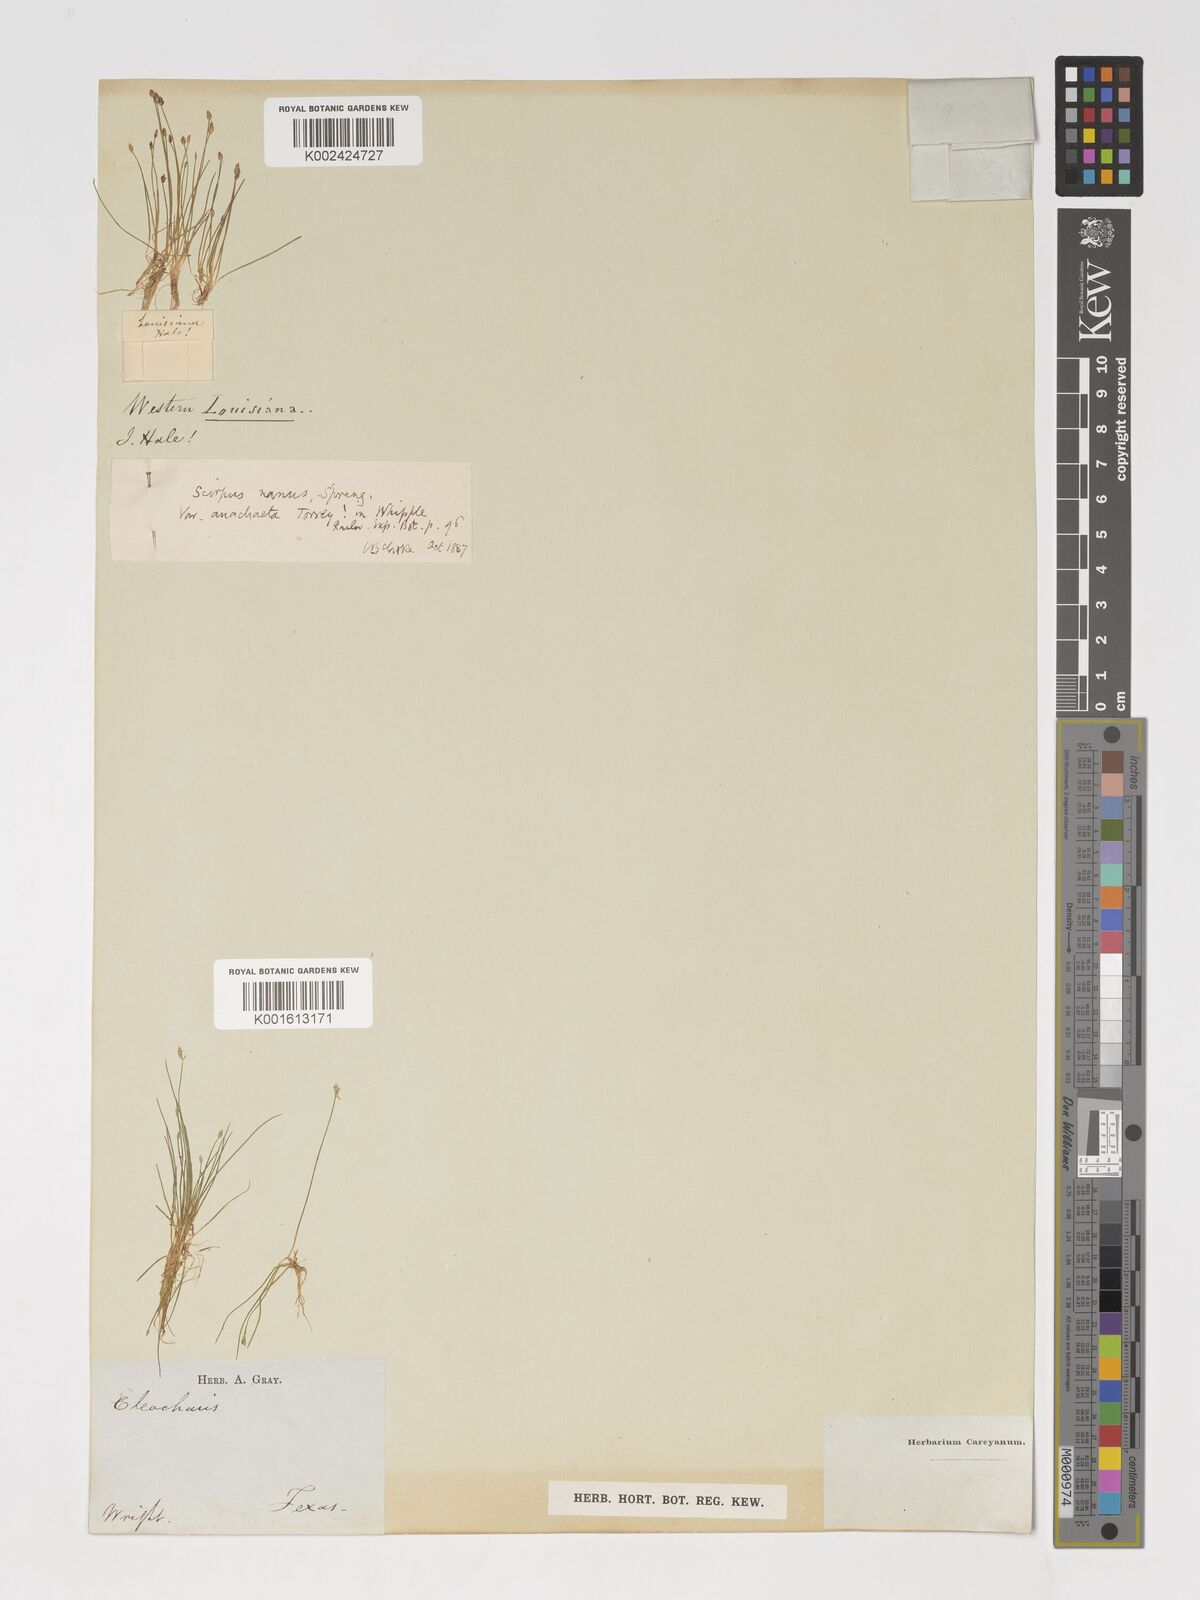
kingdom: Plantae
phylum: Tracheophyta
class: Liliopsida
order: Poales
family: Cyperaceae
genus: Eleocharis
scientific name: Eleocharis parvula
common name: Dwarf spike-rush
